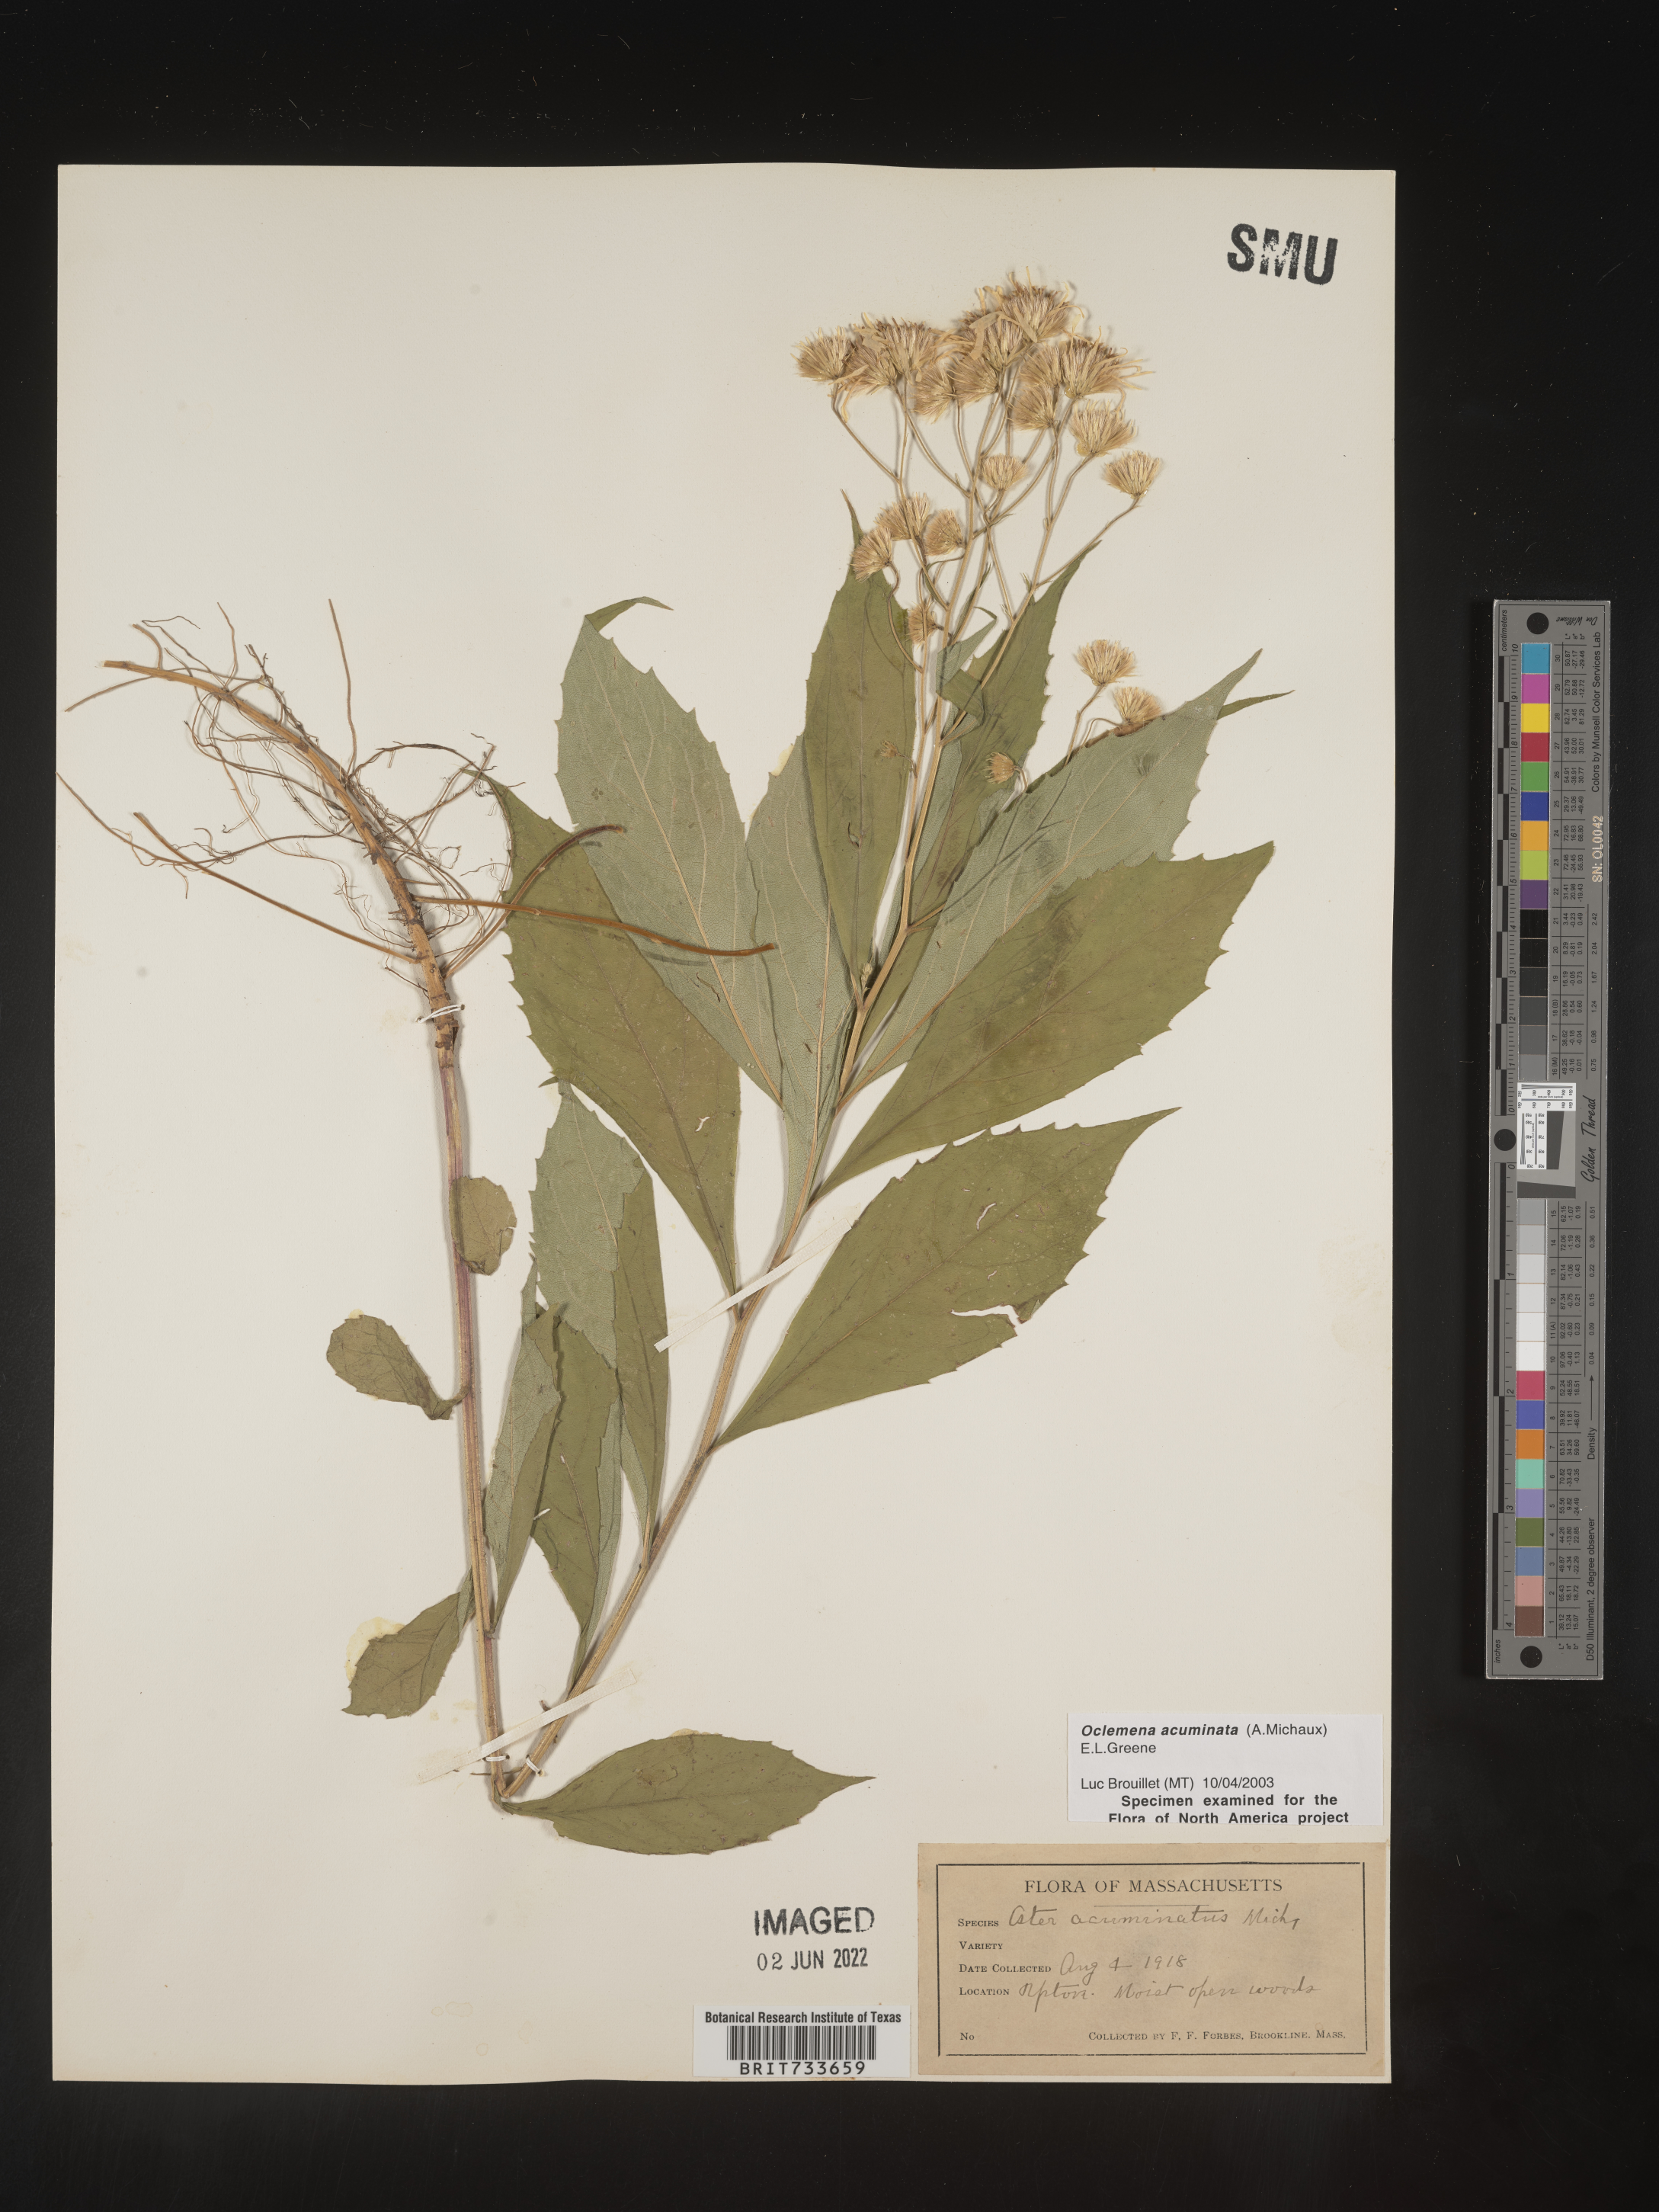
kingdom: Plantae
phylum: Tracheophyta
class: Magnoliopsida
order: Asterales
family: Asteraceae
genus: Oclemena
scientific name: Oclemena acuminata
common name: Mountain aster
